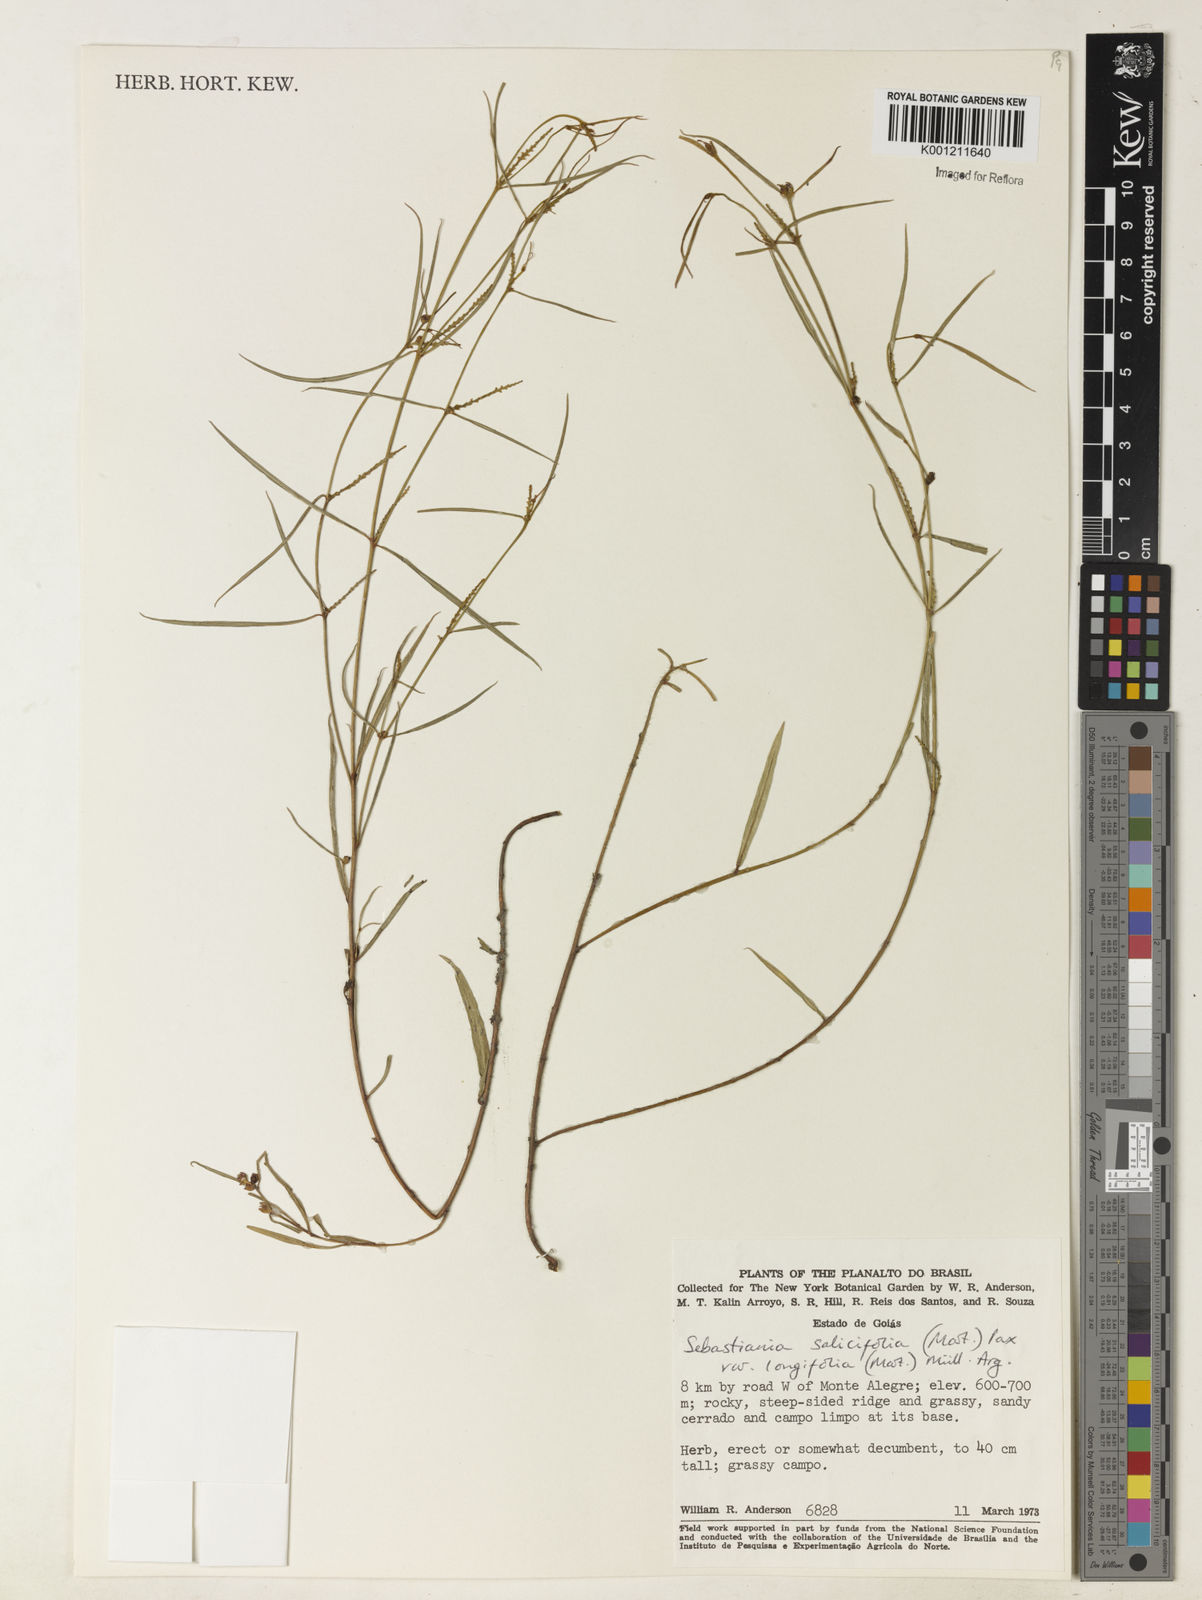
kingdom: Plantae
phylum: Tracheophyta
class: Magnoliopsida
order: Malpighiales
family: Euphorbiaceae
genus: Microstachys
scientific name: Microstachys
